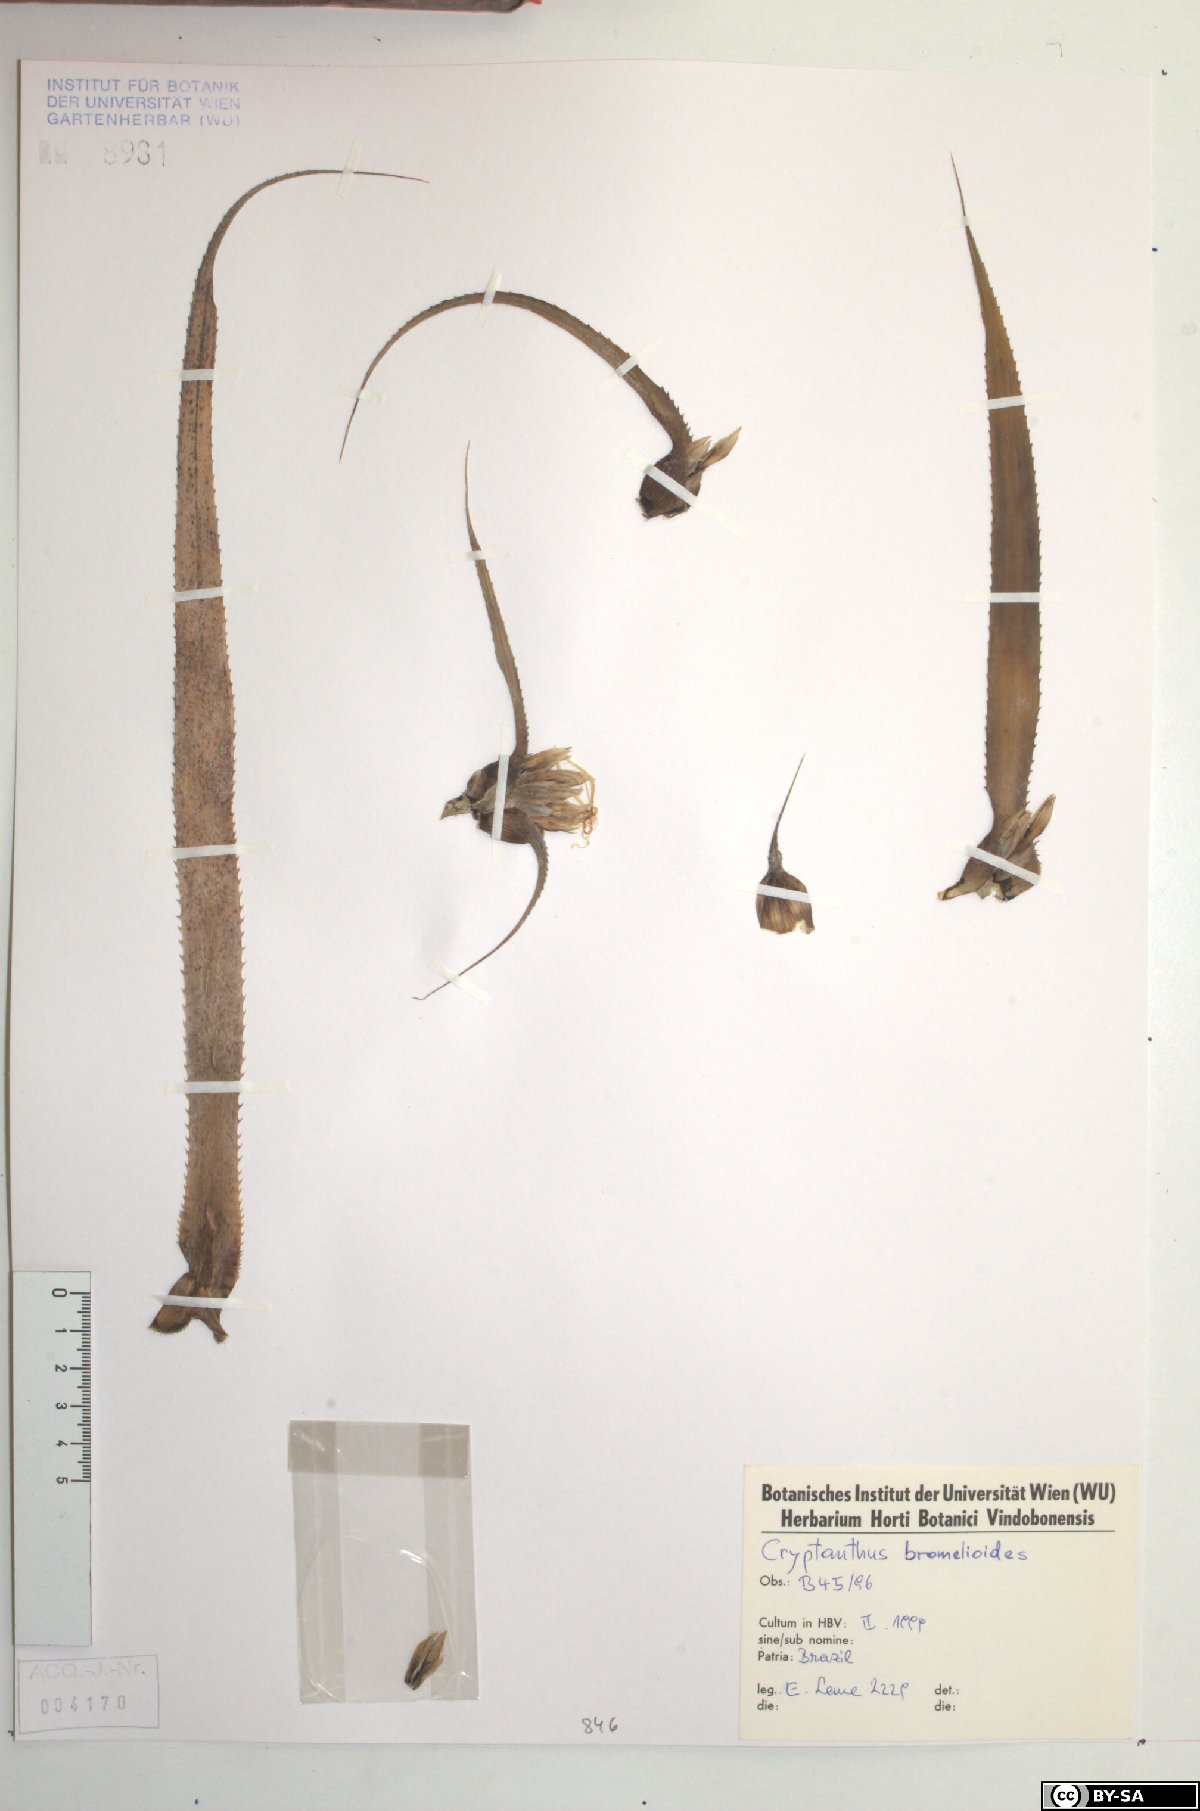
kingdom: Plantae
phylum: Tracheophyta
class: Liliopsida
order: Poales
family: Bromeliaceae
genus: Cryptanthus
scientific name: Cryptanthus bromelioides
